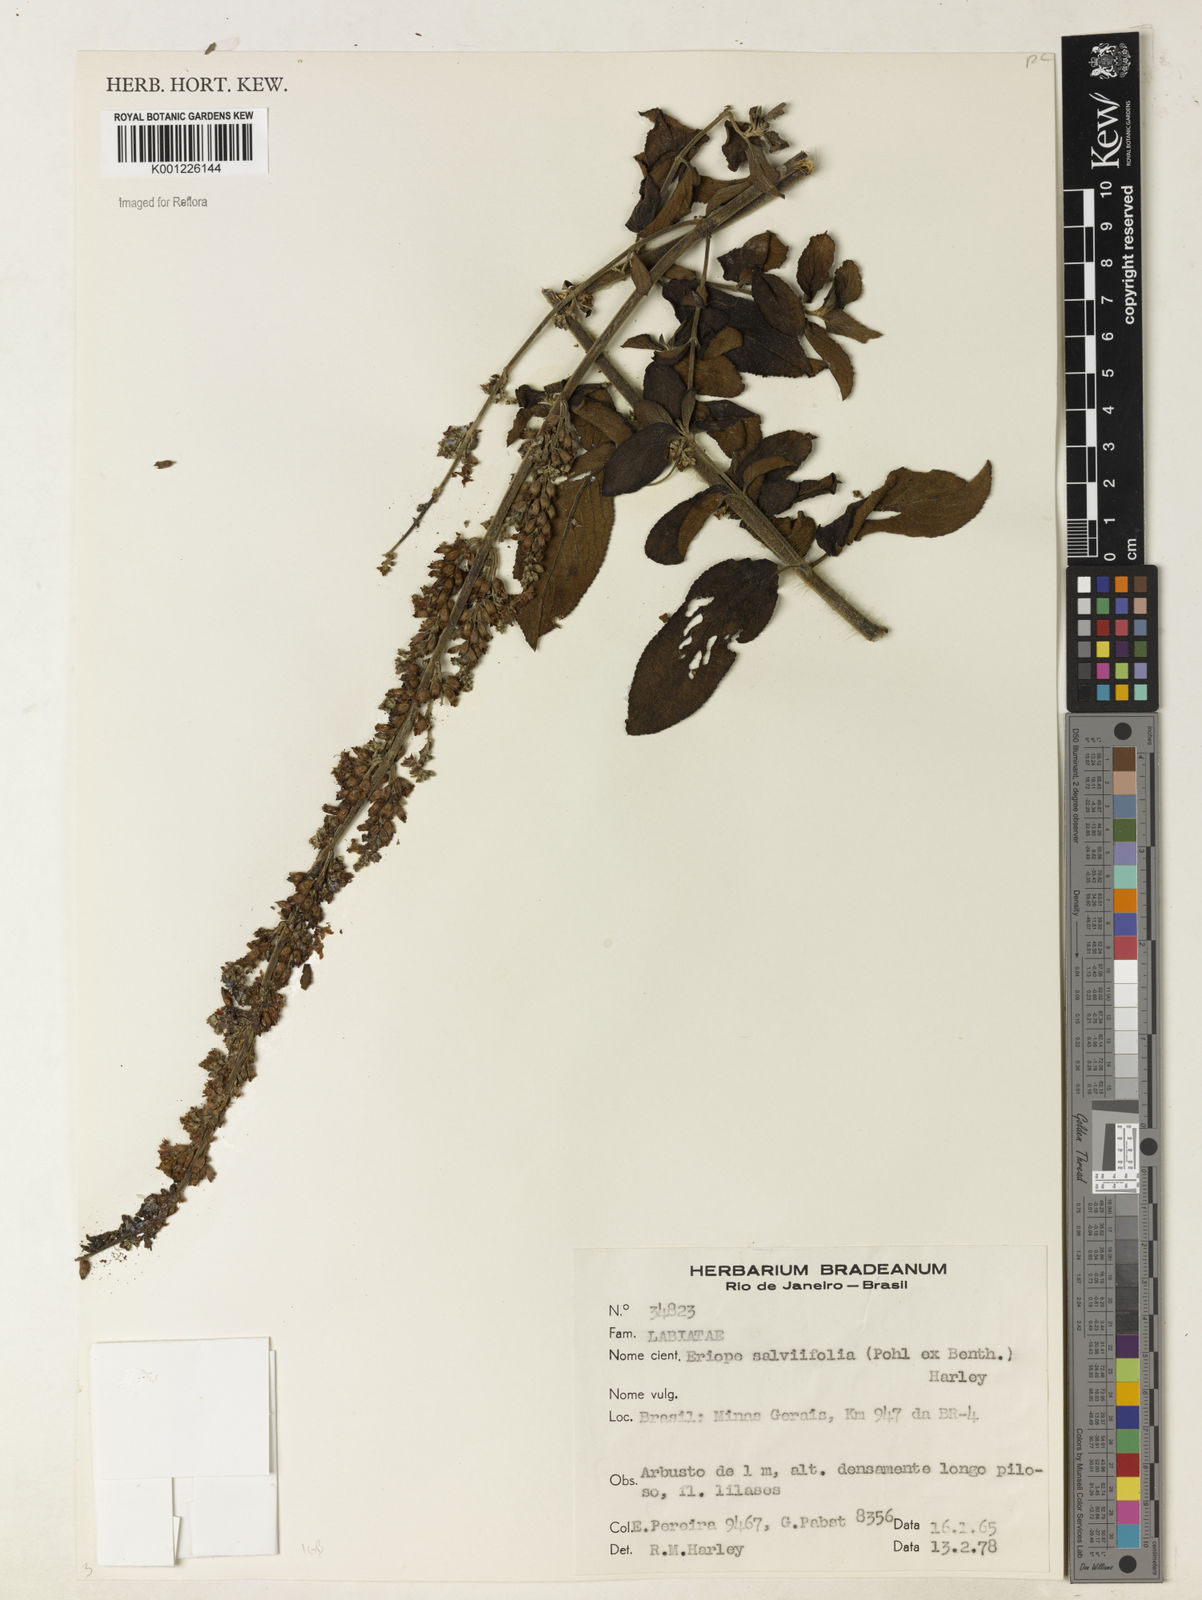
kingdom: Plantae
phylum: Tracheophyta
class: Magnoliopsida
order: Lamiales
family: Lamiaceae
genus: Eriope
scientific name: Eriope salviifolia
